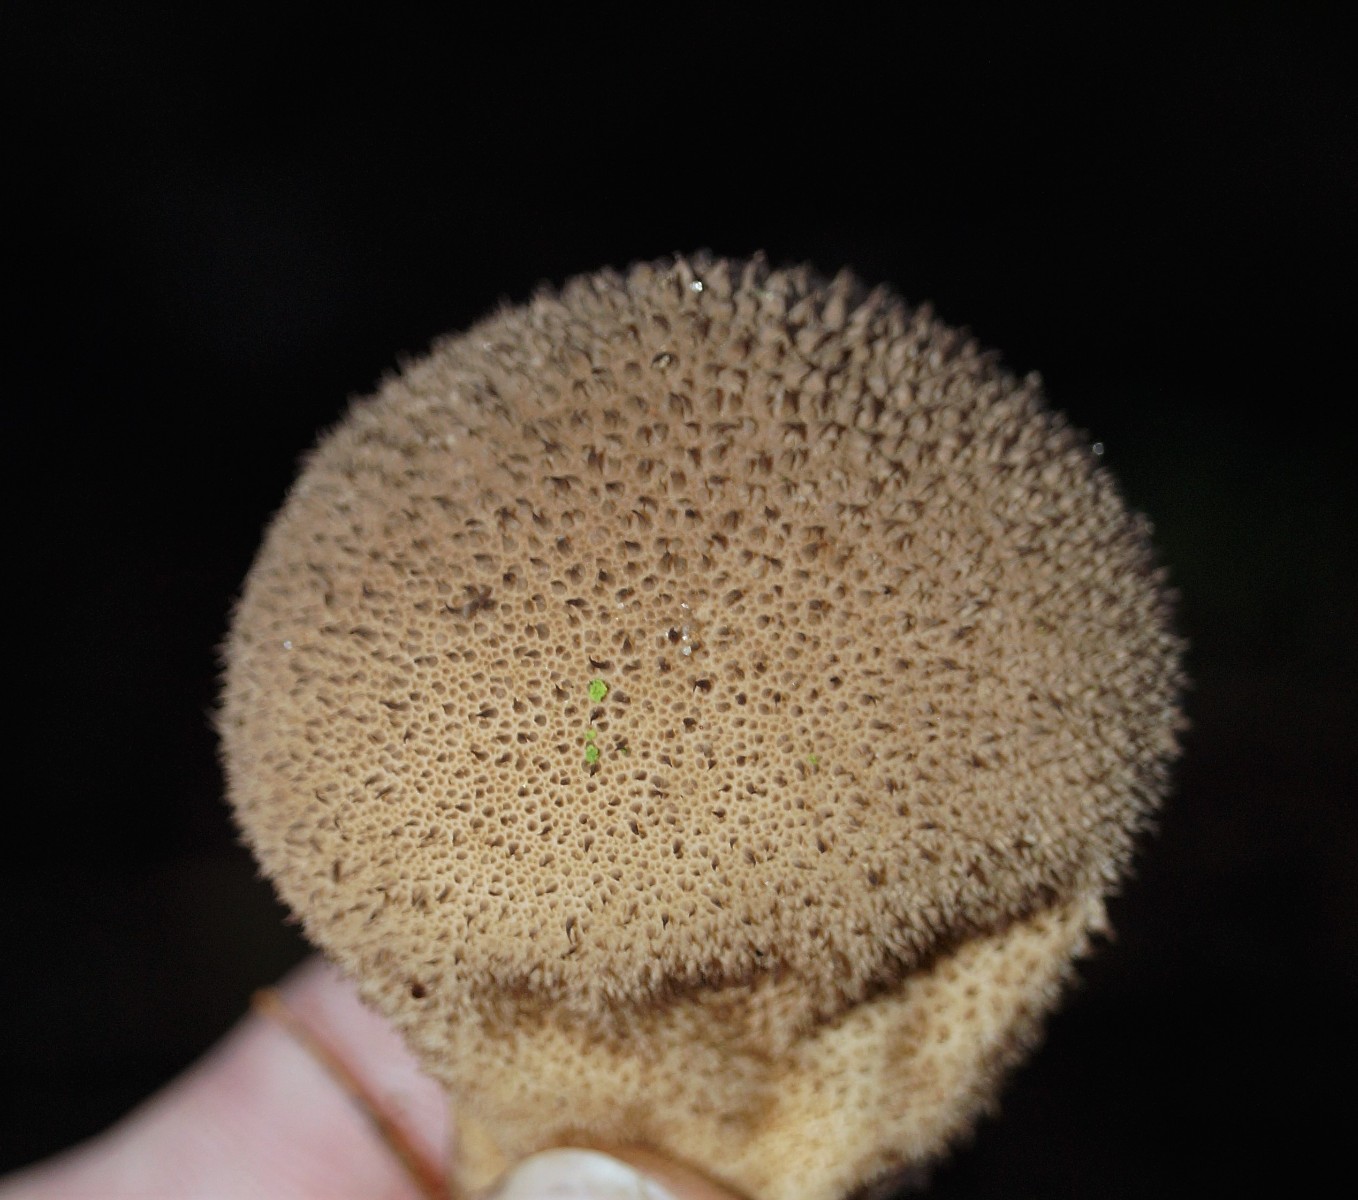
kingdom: Fungi
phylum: Basidiomycota
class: Agaricomycetes
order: Agaricales
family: Lycoperdaceae
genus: Lycoperdon
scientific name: Lycoperdon nigrescens
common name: sortagtig støvbold
